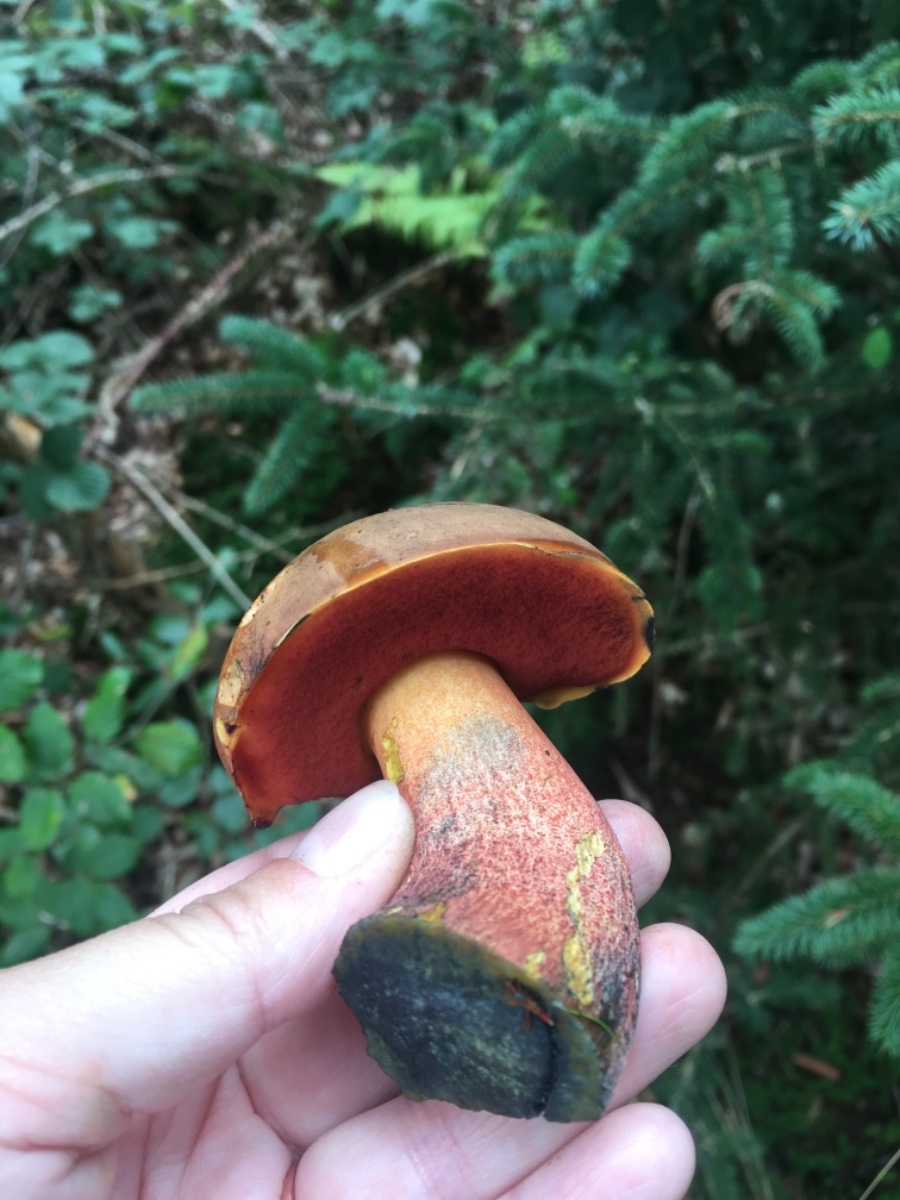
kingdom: Fungi
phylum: Basidiomycota
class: Agaricomycetes
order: Boletales
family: Boletaceae
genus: Neoboletus
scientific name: Neoboletus erythropus
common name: punktstokket indigorørhat
